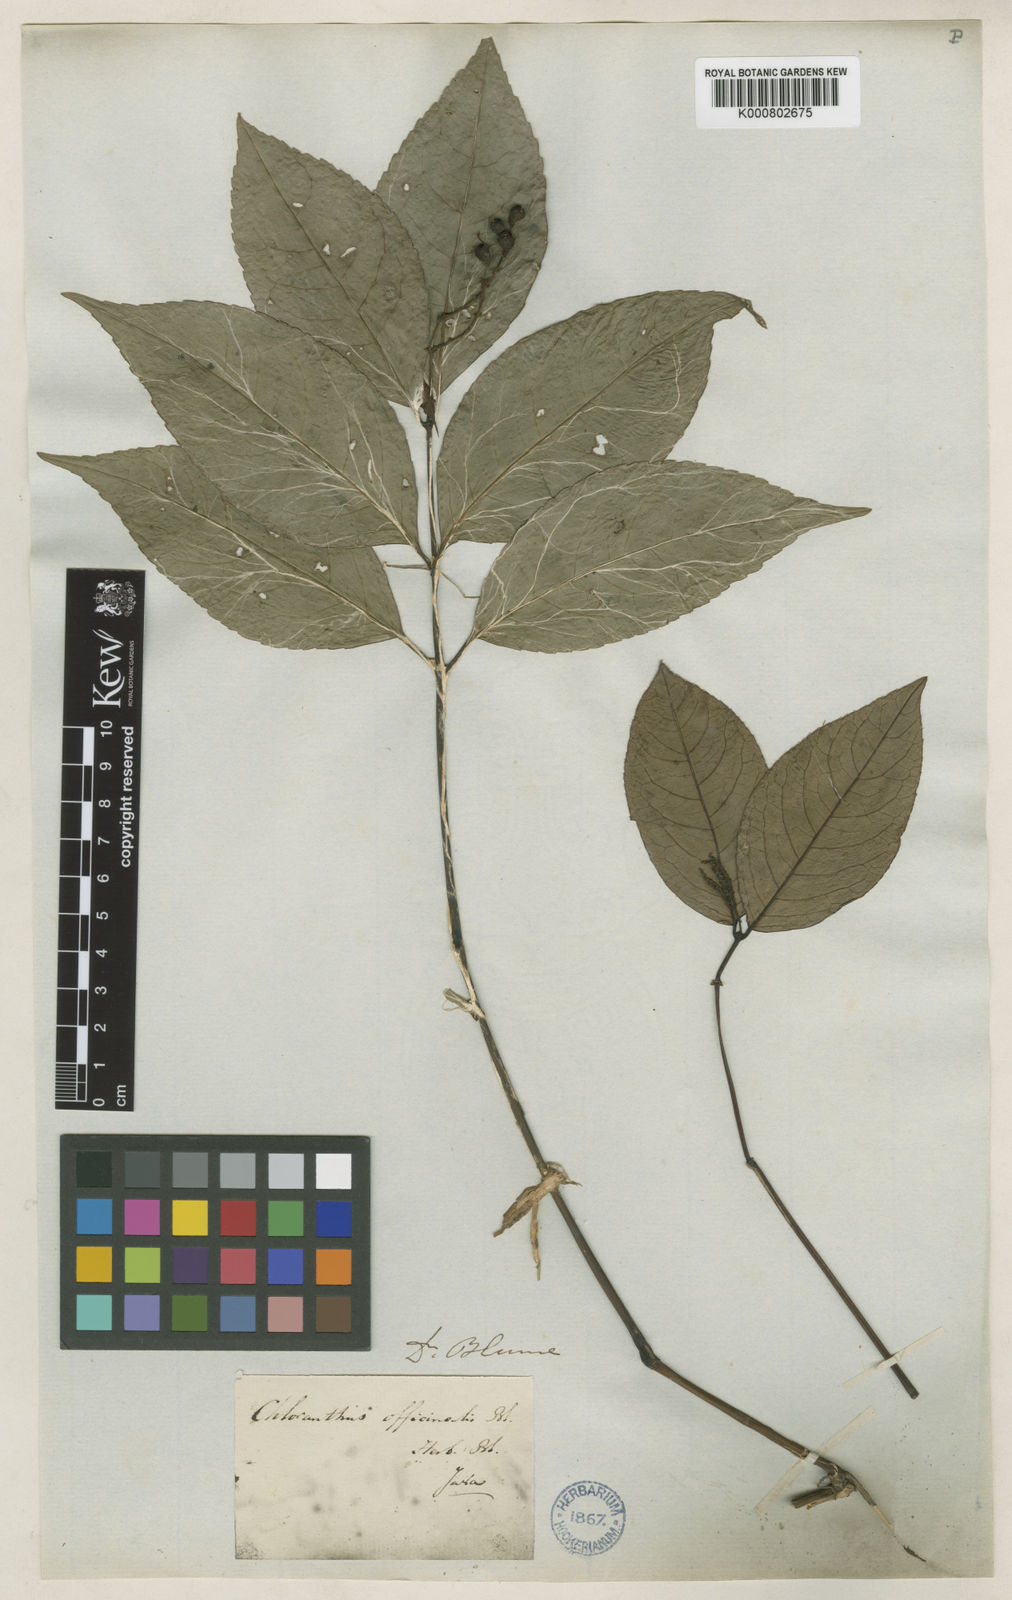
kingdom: Plantae
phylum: Tracheophyta
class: Magnoliopsida
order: Chloranthales
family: Chloranthaceae
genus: Chloranthus
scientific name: Chloranthus
